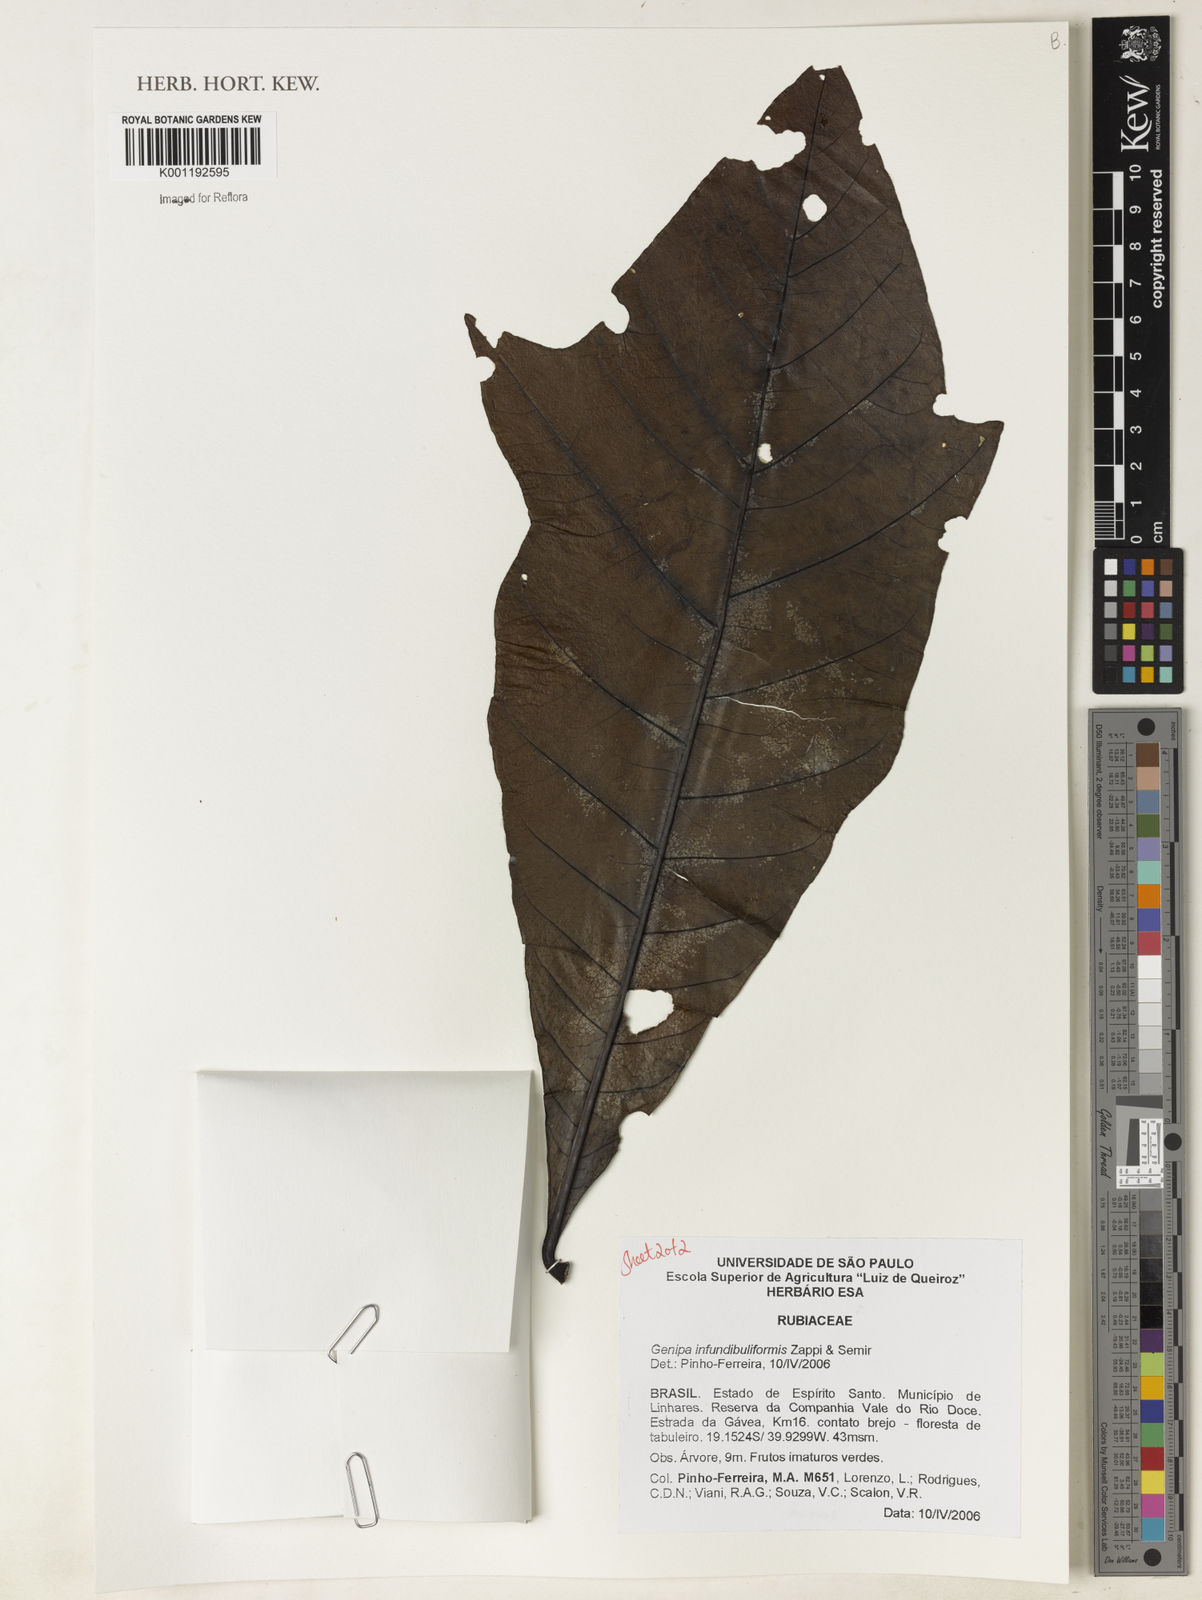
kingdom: Plantae
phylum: Tracheophyta
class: Magnoliopsida
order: Gentianales
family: Rubiaceae
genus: Genipa
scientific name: Genipa infundibuliformis
